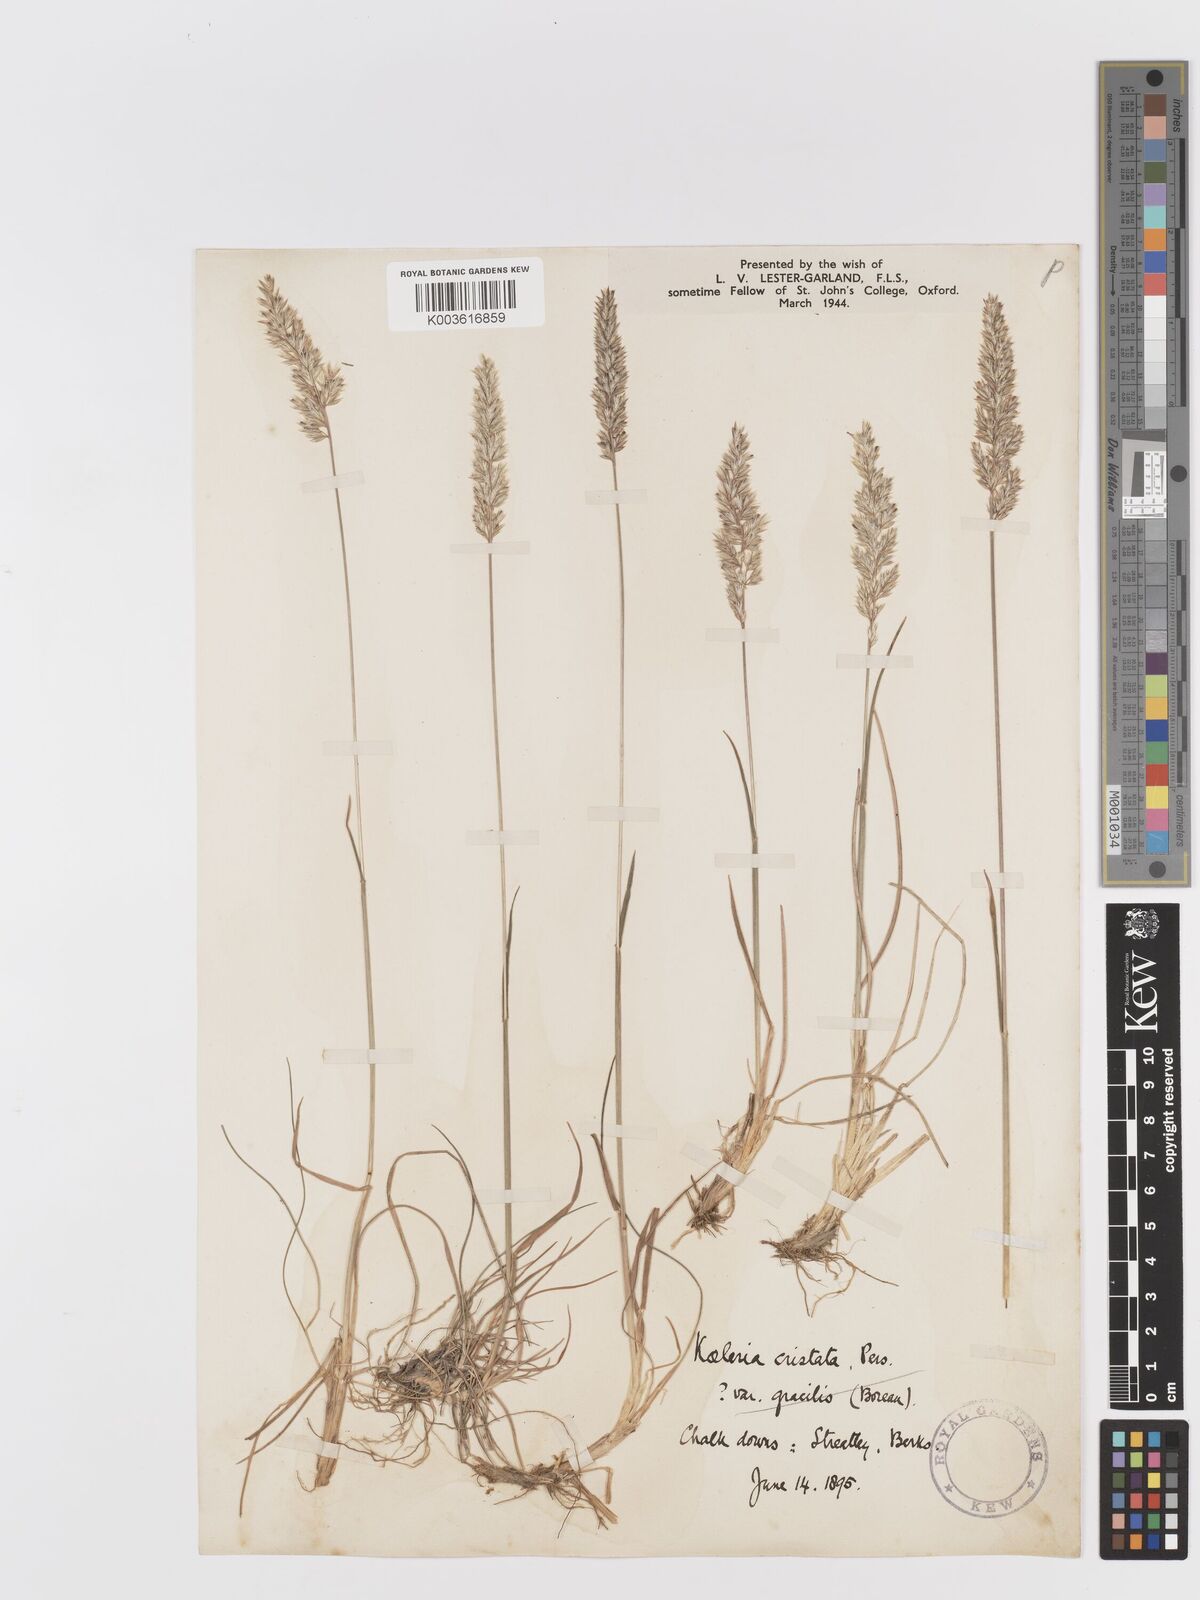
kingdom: Plantae
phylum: Tracheophyta
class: Liliopsida
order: Poales
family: Poaceae
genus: Koeleria
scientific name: Koeleria macrantha
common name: Crested hair-grass
